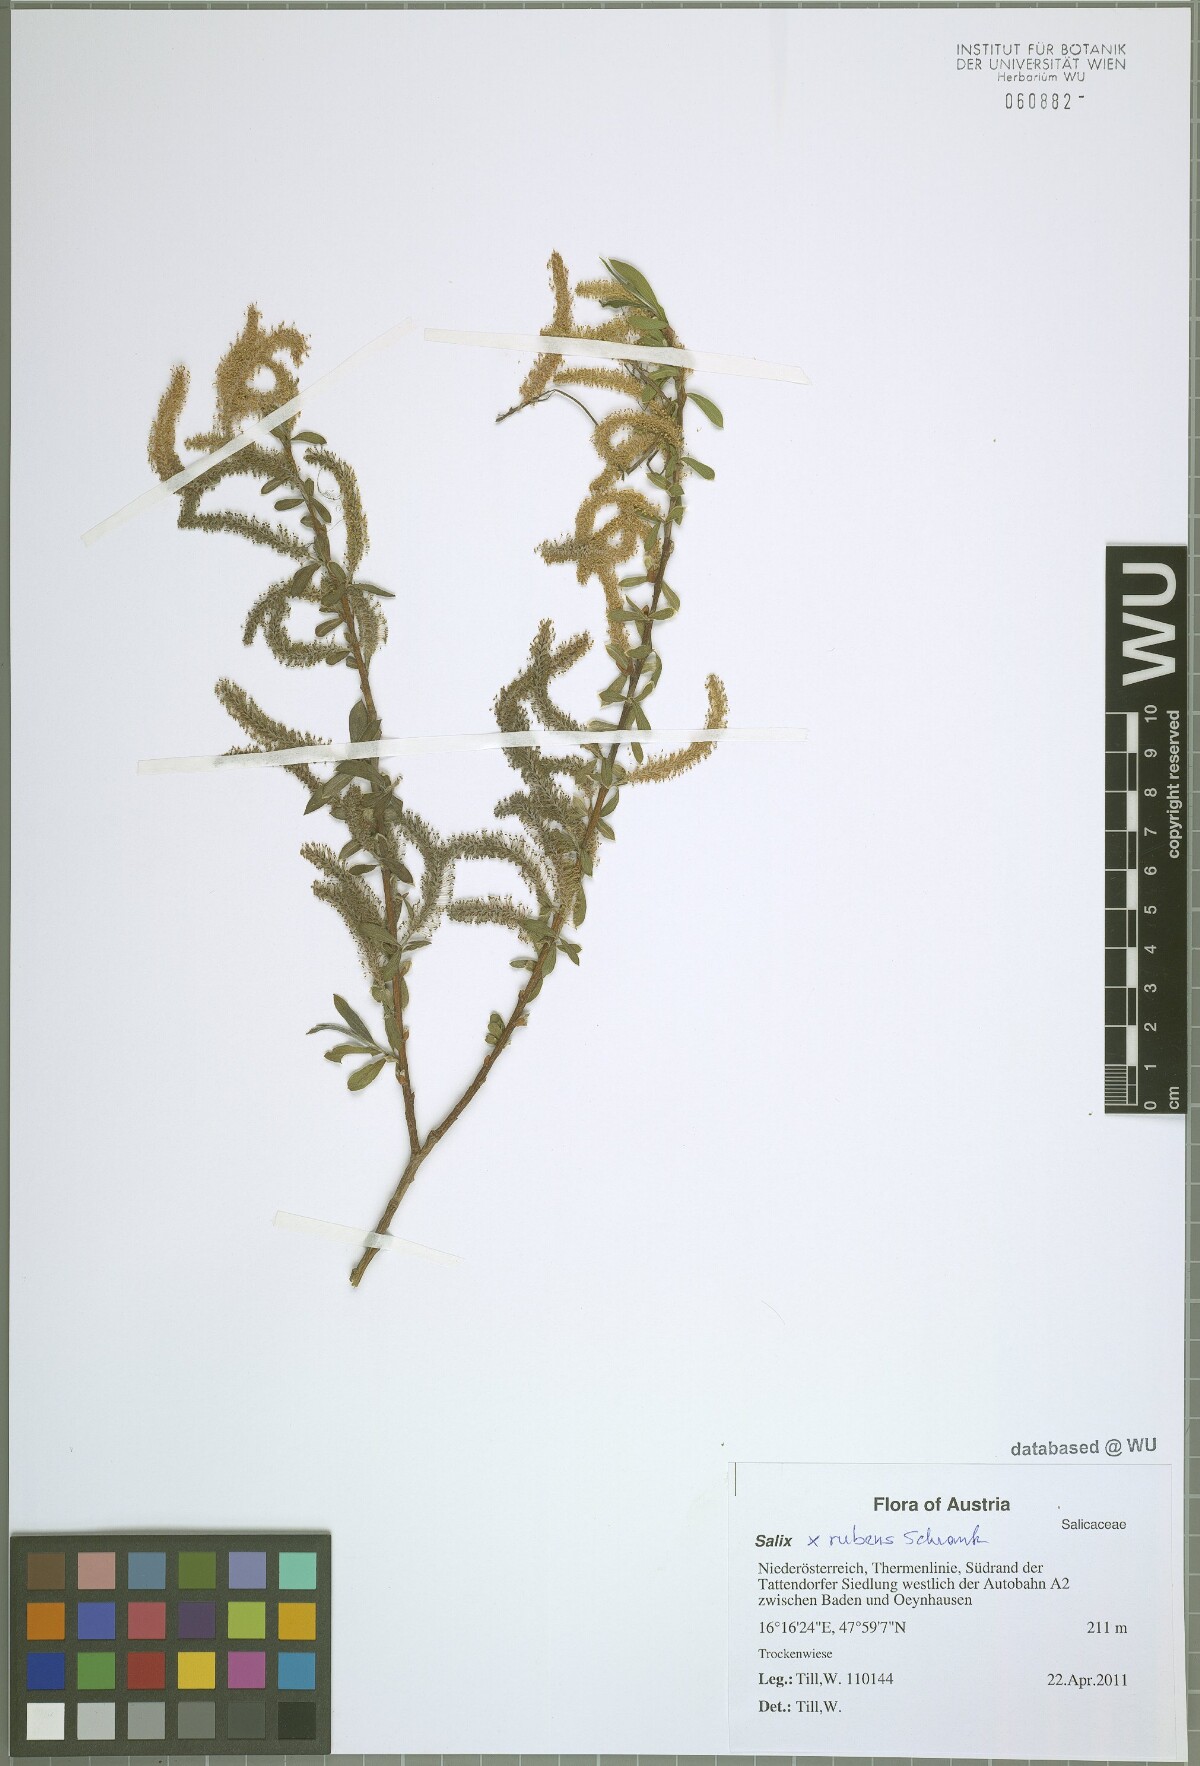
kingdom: Plantae
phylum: Tracheophyta
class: Magnoliopsida
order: Malpighiales
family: Salicaceae
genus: Salix
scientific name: Salix rubens
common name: Hybrid crack willow
